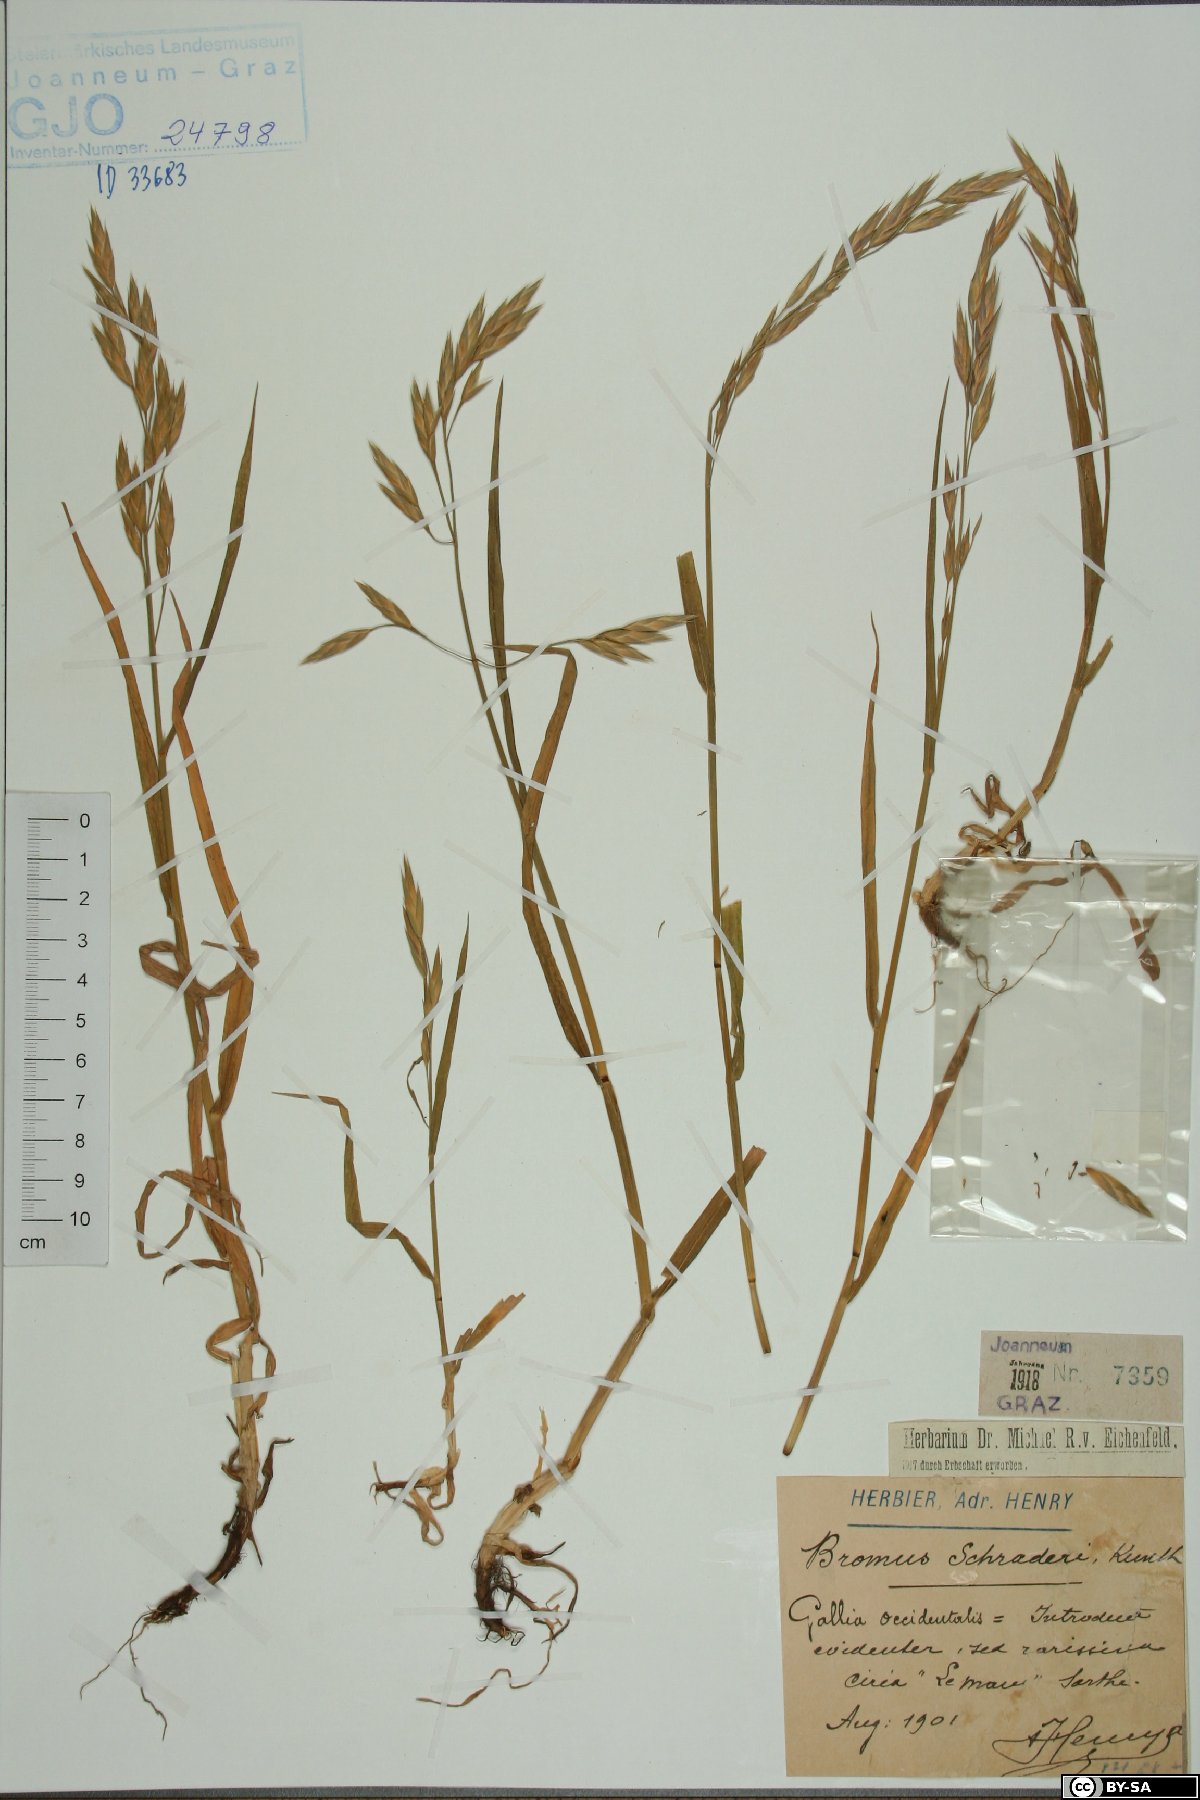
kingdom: Plantae
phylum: Tracheophyta
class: Liliopsida
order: Poales
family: Poaceae
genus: Bromus
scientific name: Bromus catharticus
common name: Rescuegrass
